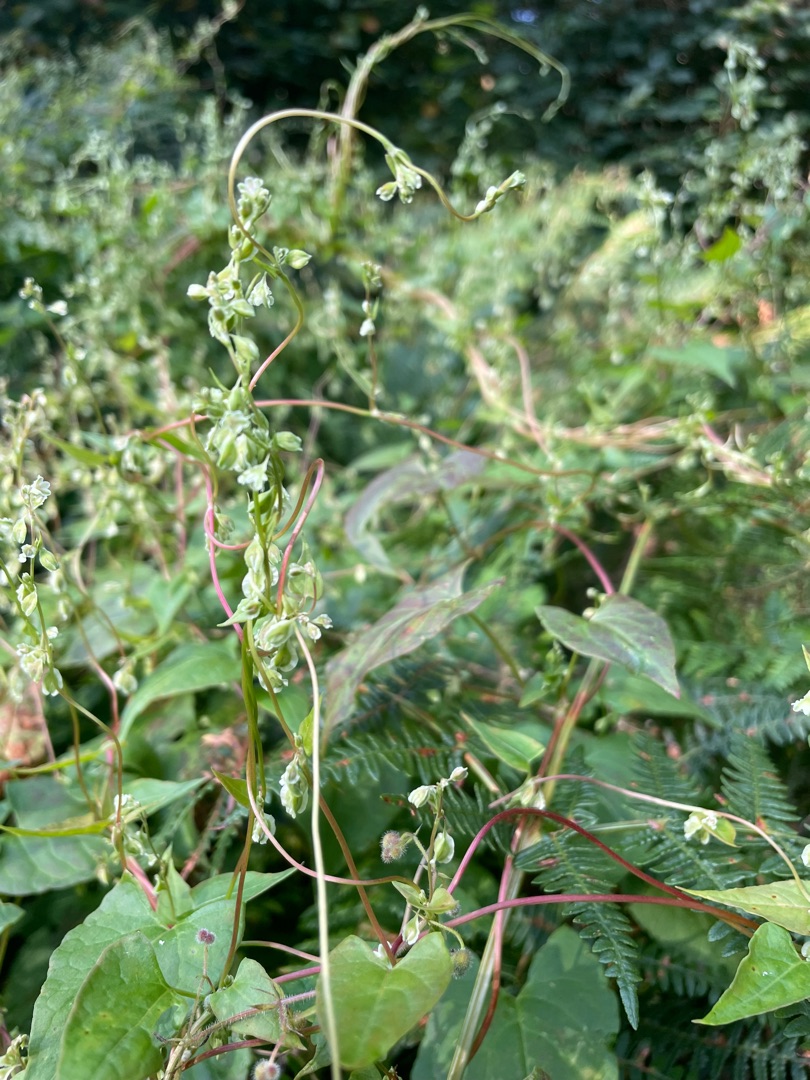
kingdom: Plantae
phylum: Tracheophyta
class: Magnoliopsida
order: Caryophyllales
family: Polygonaceae
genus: Fallopia
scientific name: Fallopia dumetorum
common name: Vinge-pileurt
